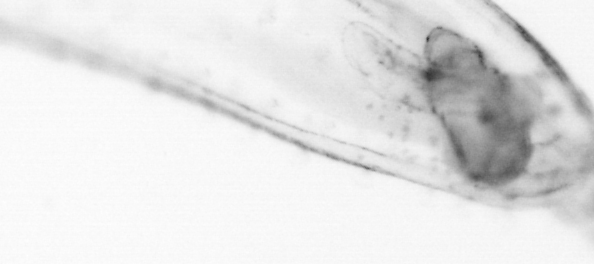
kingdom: Animalia
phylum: Chaetognatha
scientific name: Chaetognatha
